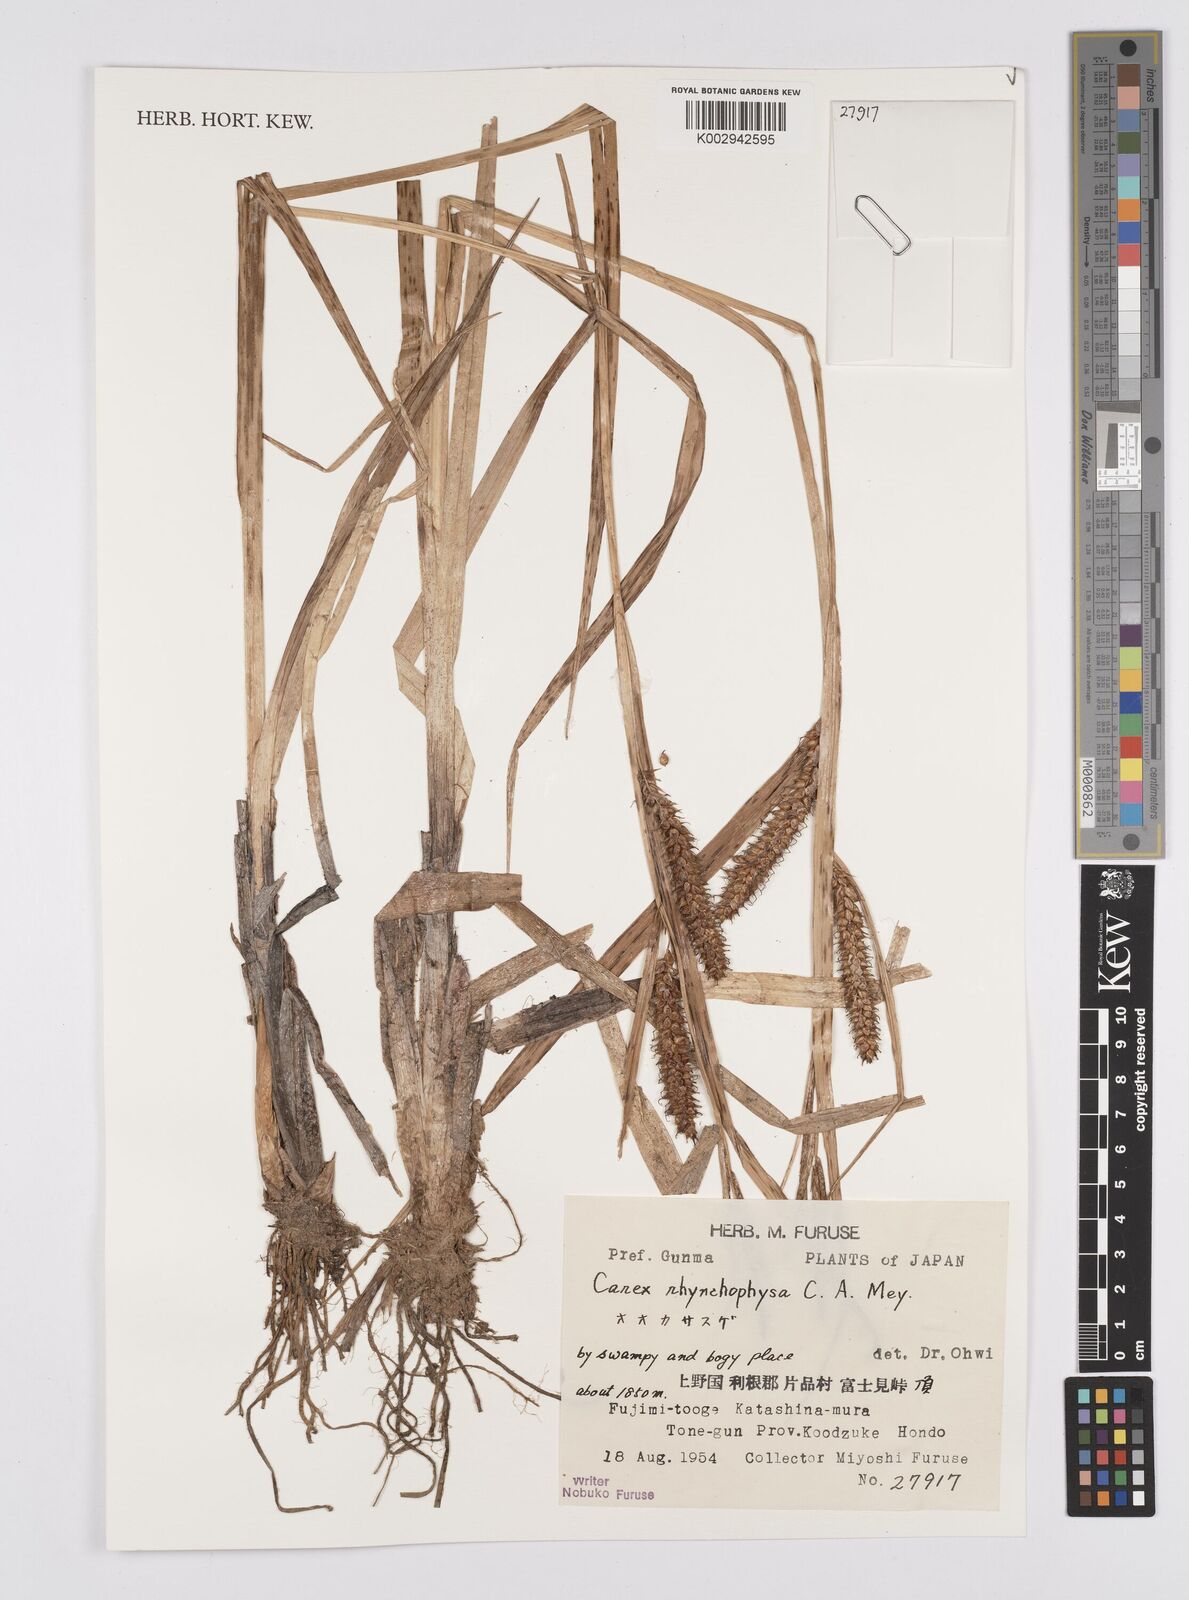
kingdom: Plantae
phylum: Tracheophyta
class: Liliopsida
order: Poales
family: Cyperaceae
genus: Carex
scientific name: Carex utriculata
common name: Beaked sedge
